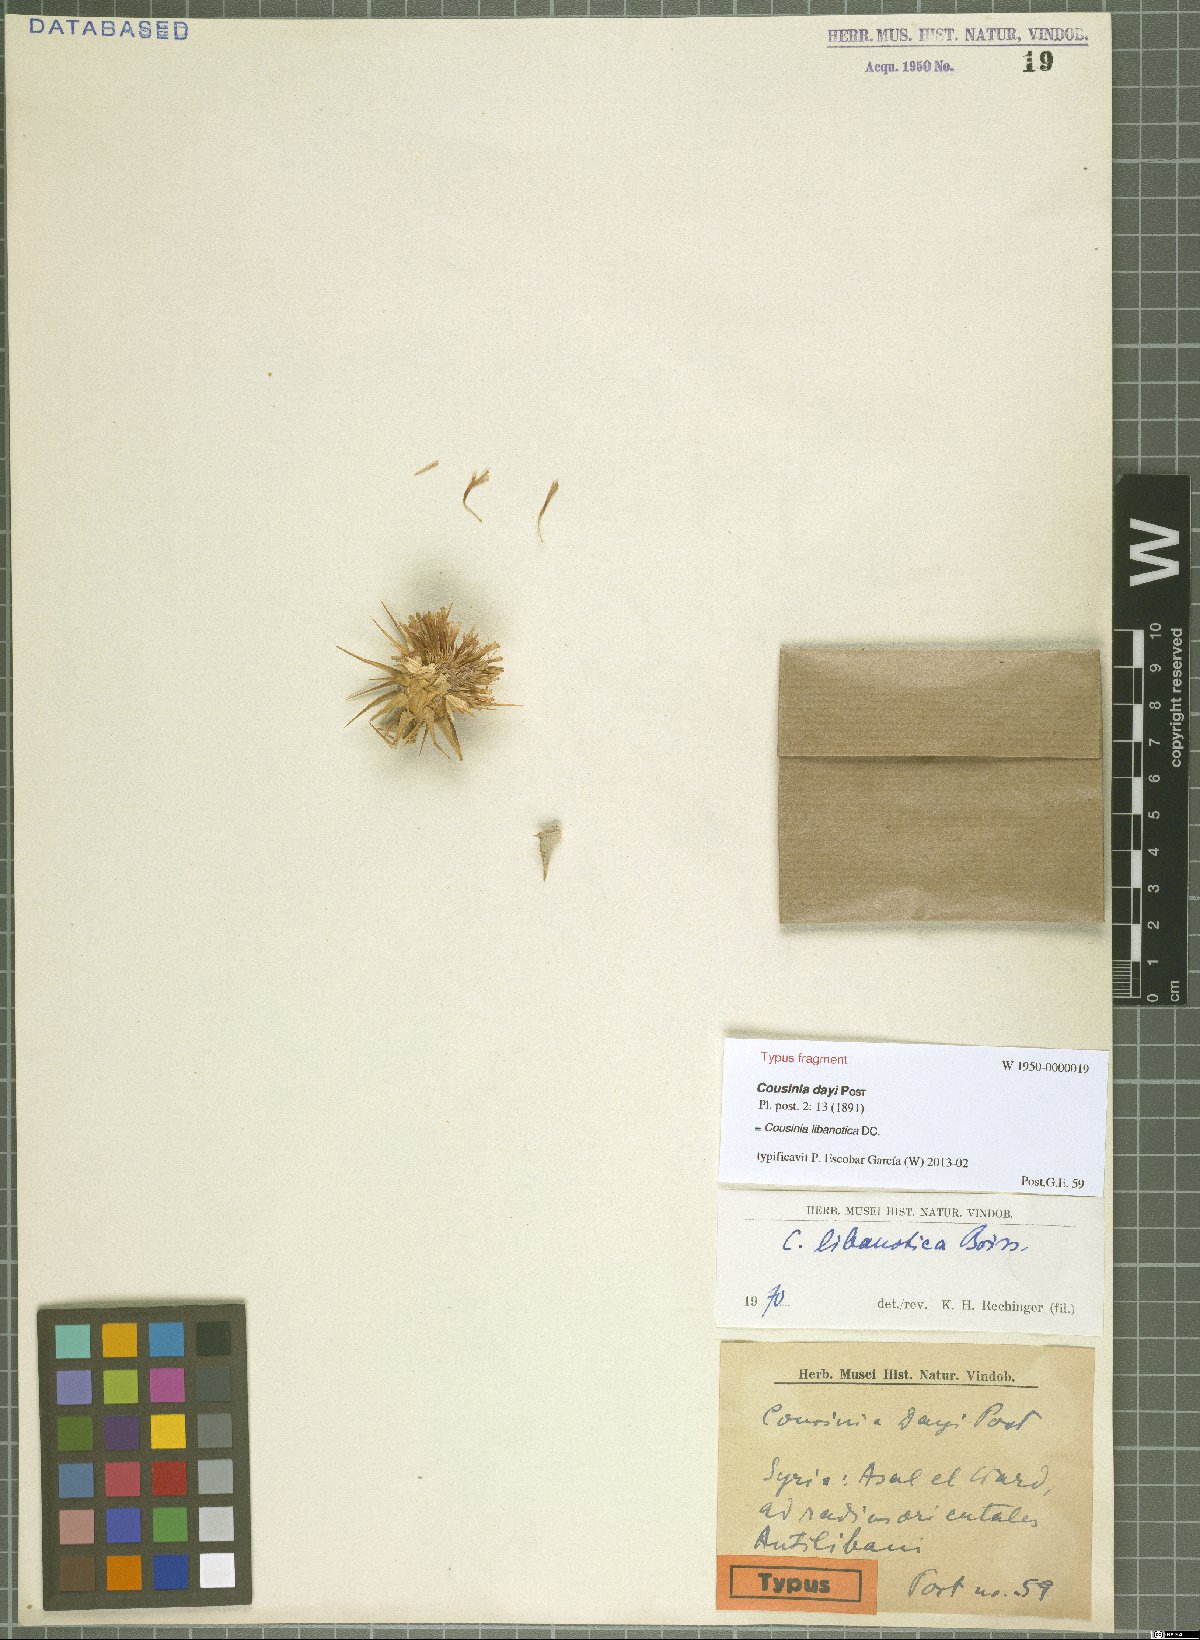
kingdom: Plantae
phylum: Tracheophyta
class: Magnoliopsida
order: Asterales
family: Asteraceae
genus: Cousinia
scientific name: Cousinia libanotica
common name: Lebanon cousinia
